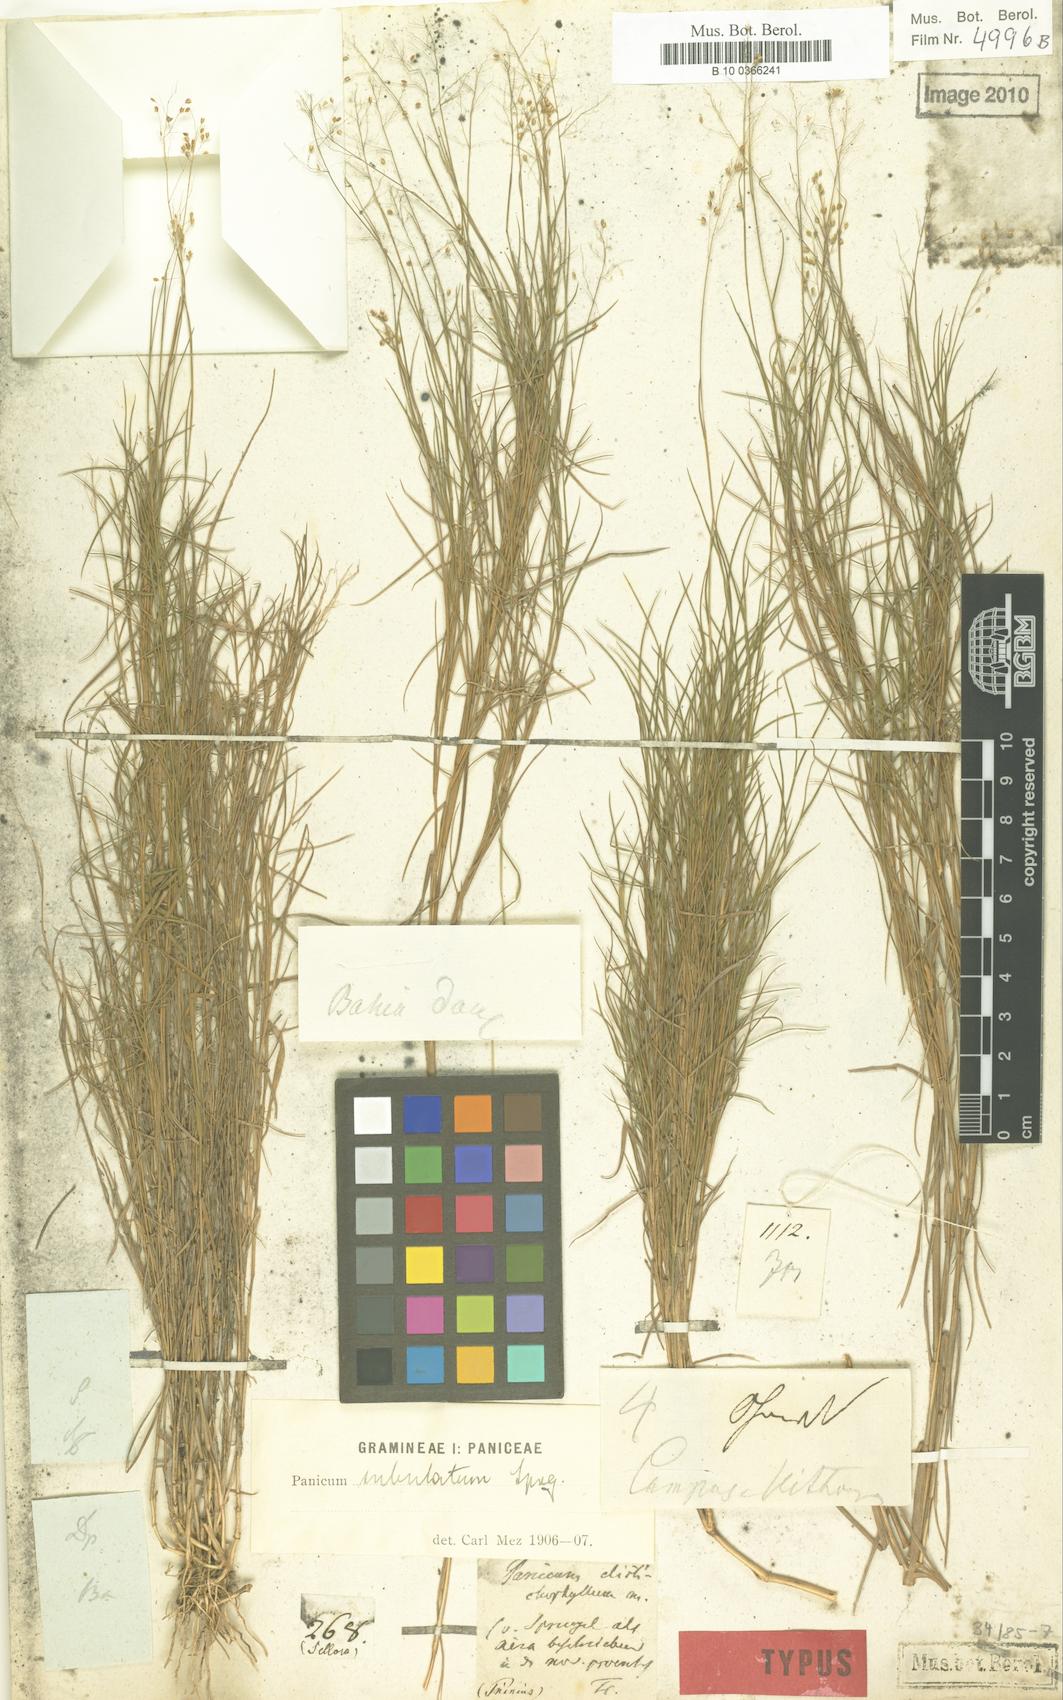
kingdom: Plantae
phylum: Tracheophyta
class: Liliopsida
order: Poales
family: Poaceae
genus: Trichanthecium
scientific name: Trichanthecium distichophyllum
